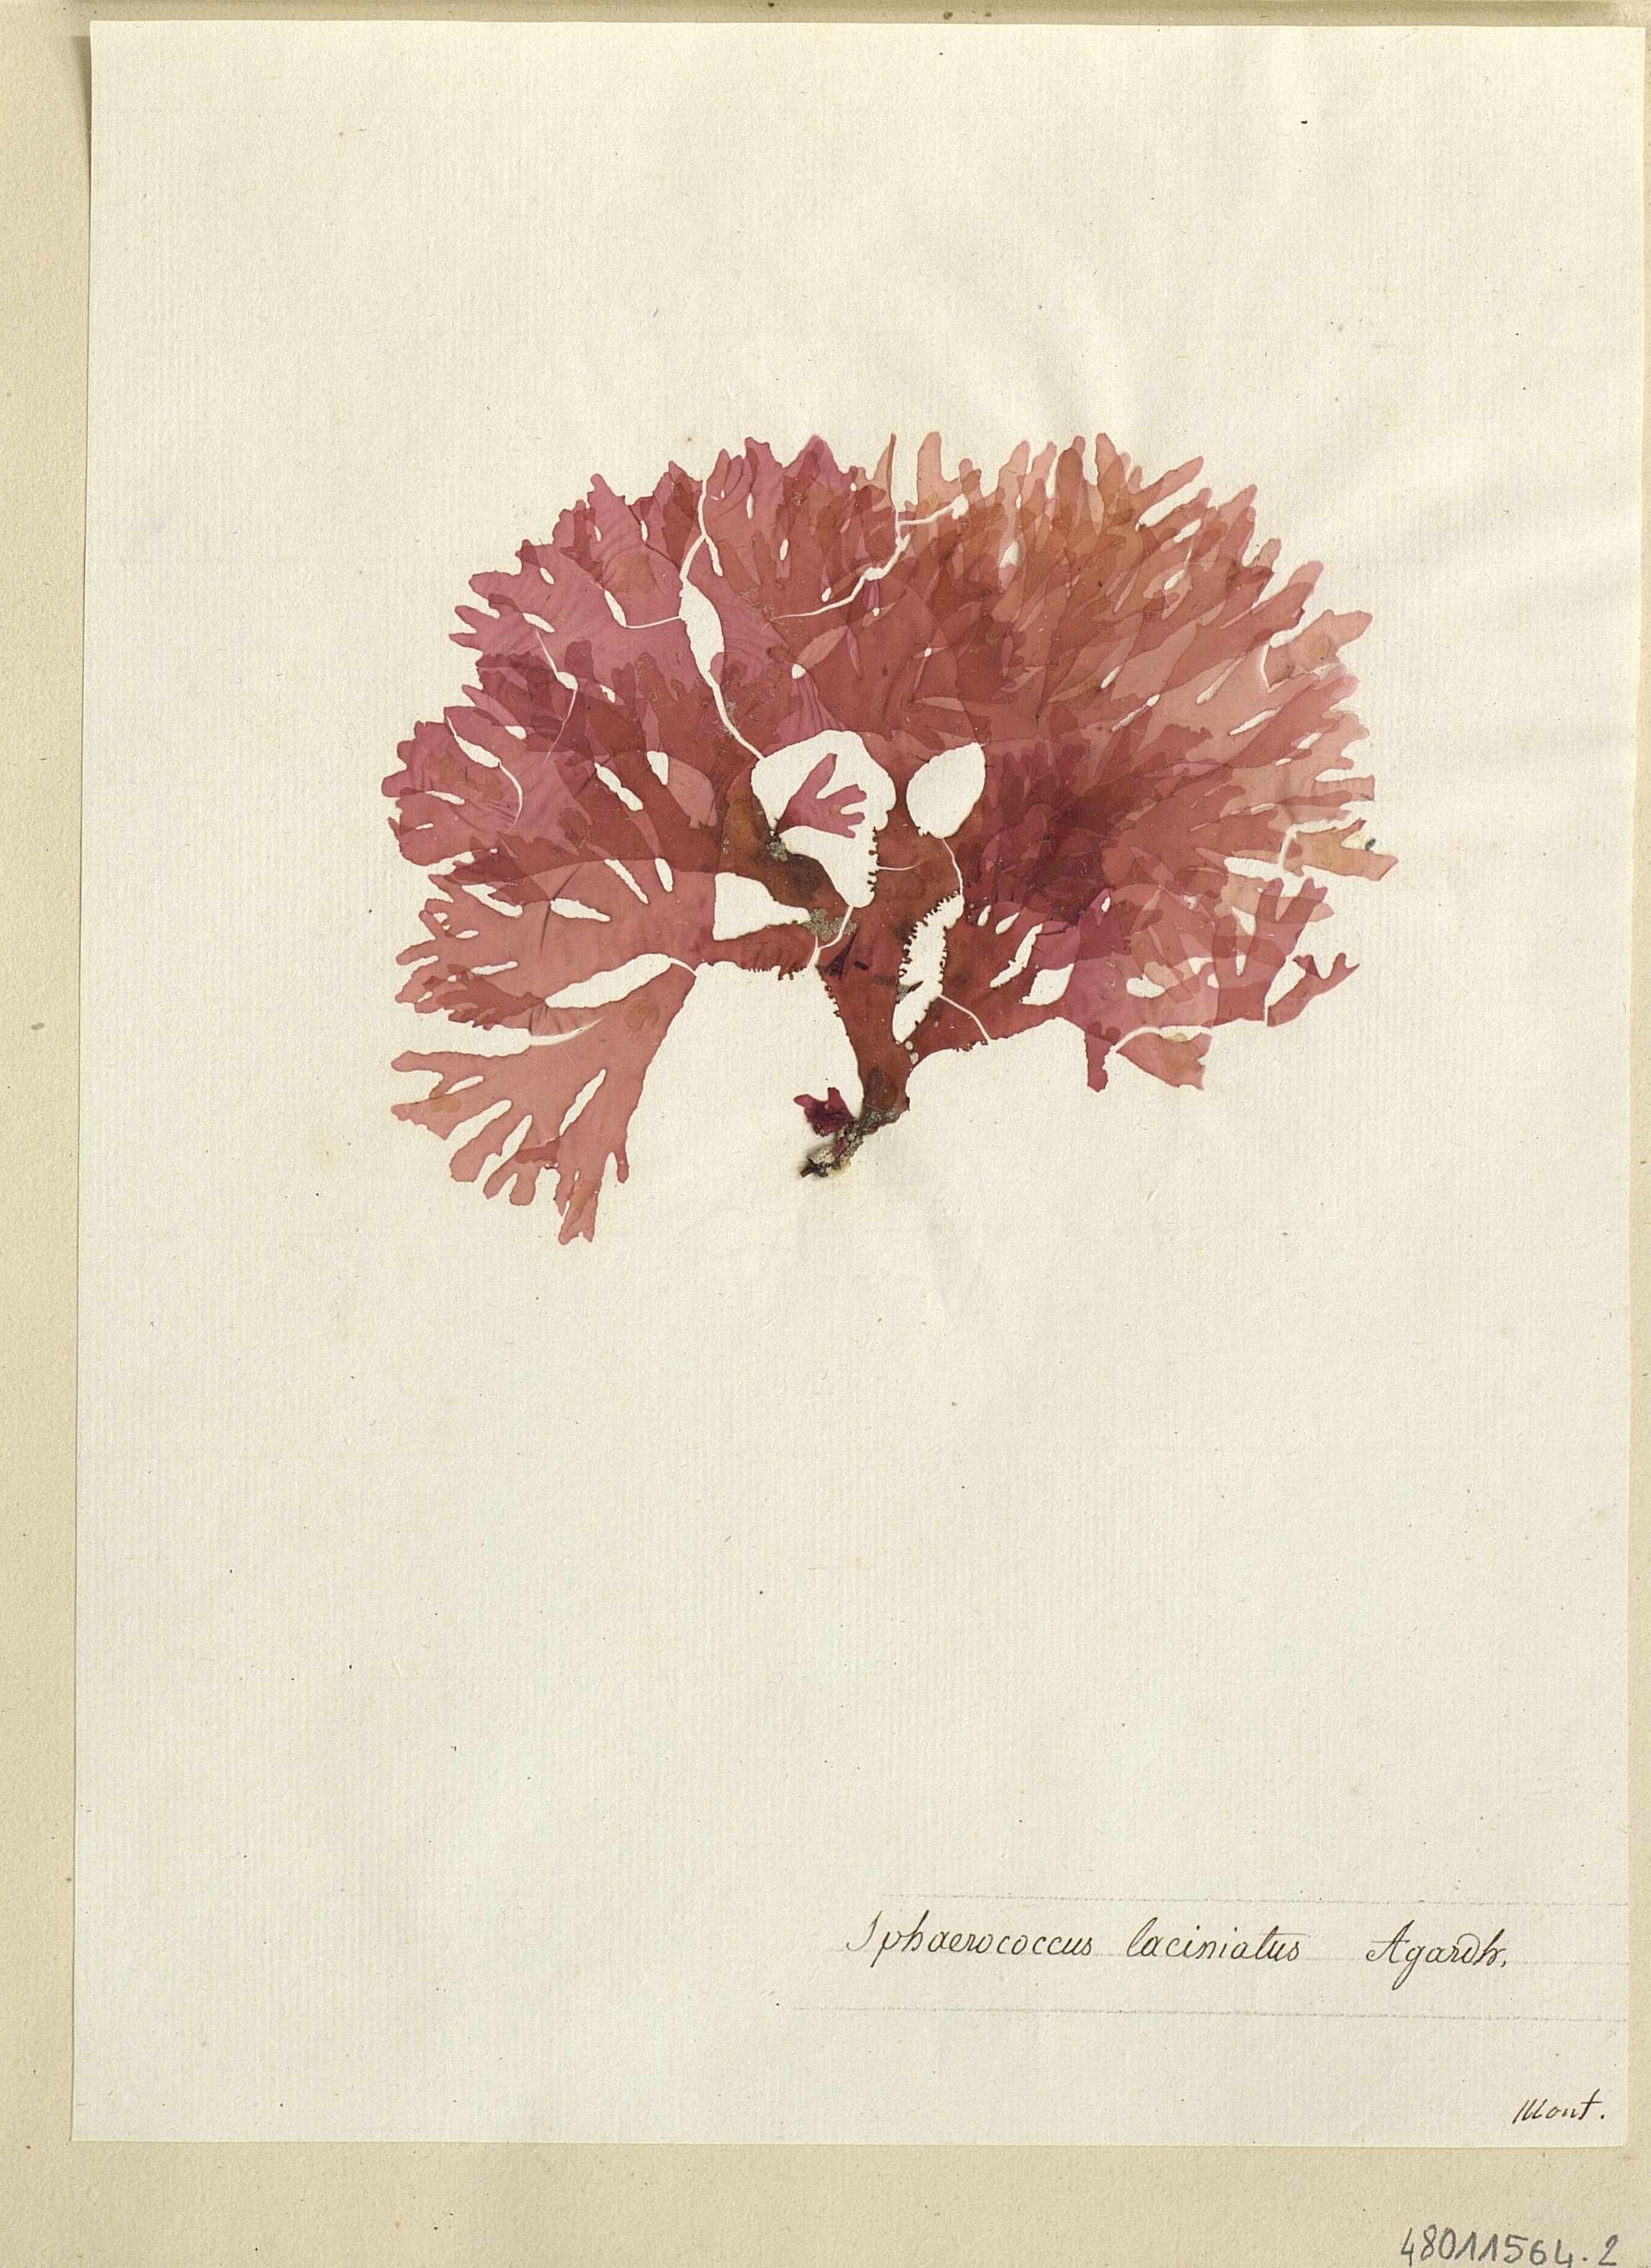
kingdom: Plantae
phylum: Rhodophyta
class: Florideophyceae
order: Gigartinales
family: Kallymeniaceae
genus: Metacallophyllis
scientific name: Metacallophyllis spec
